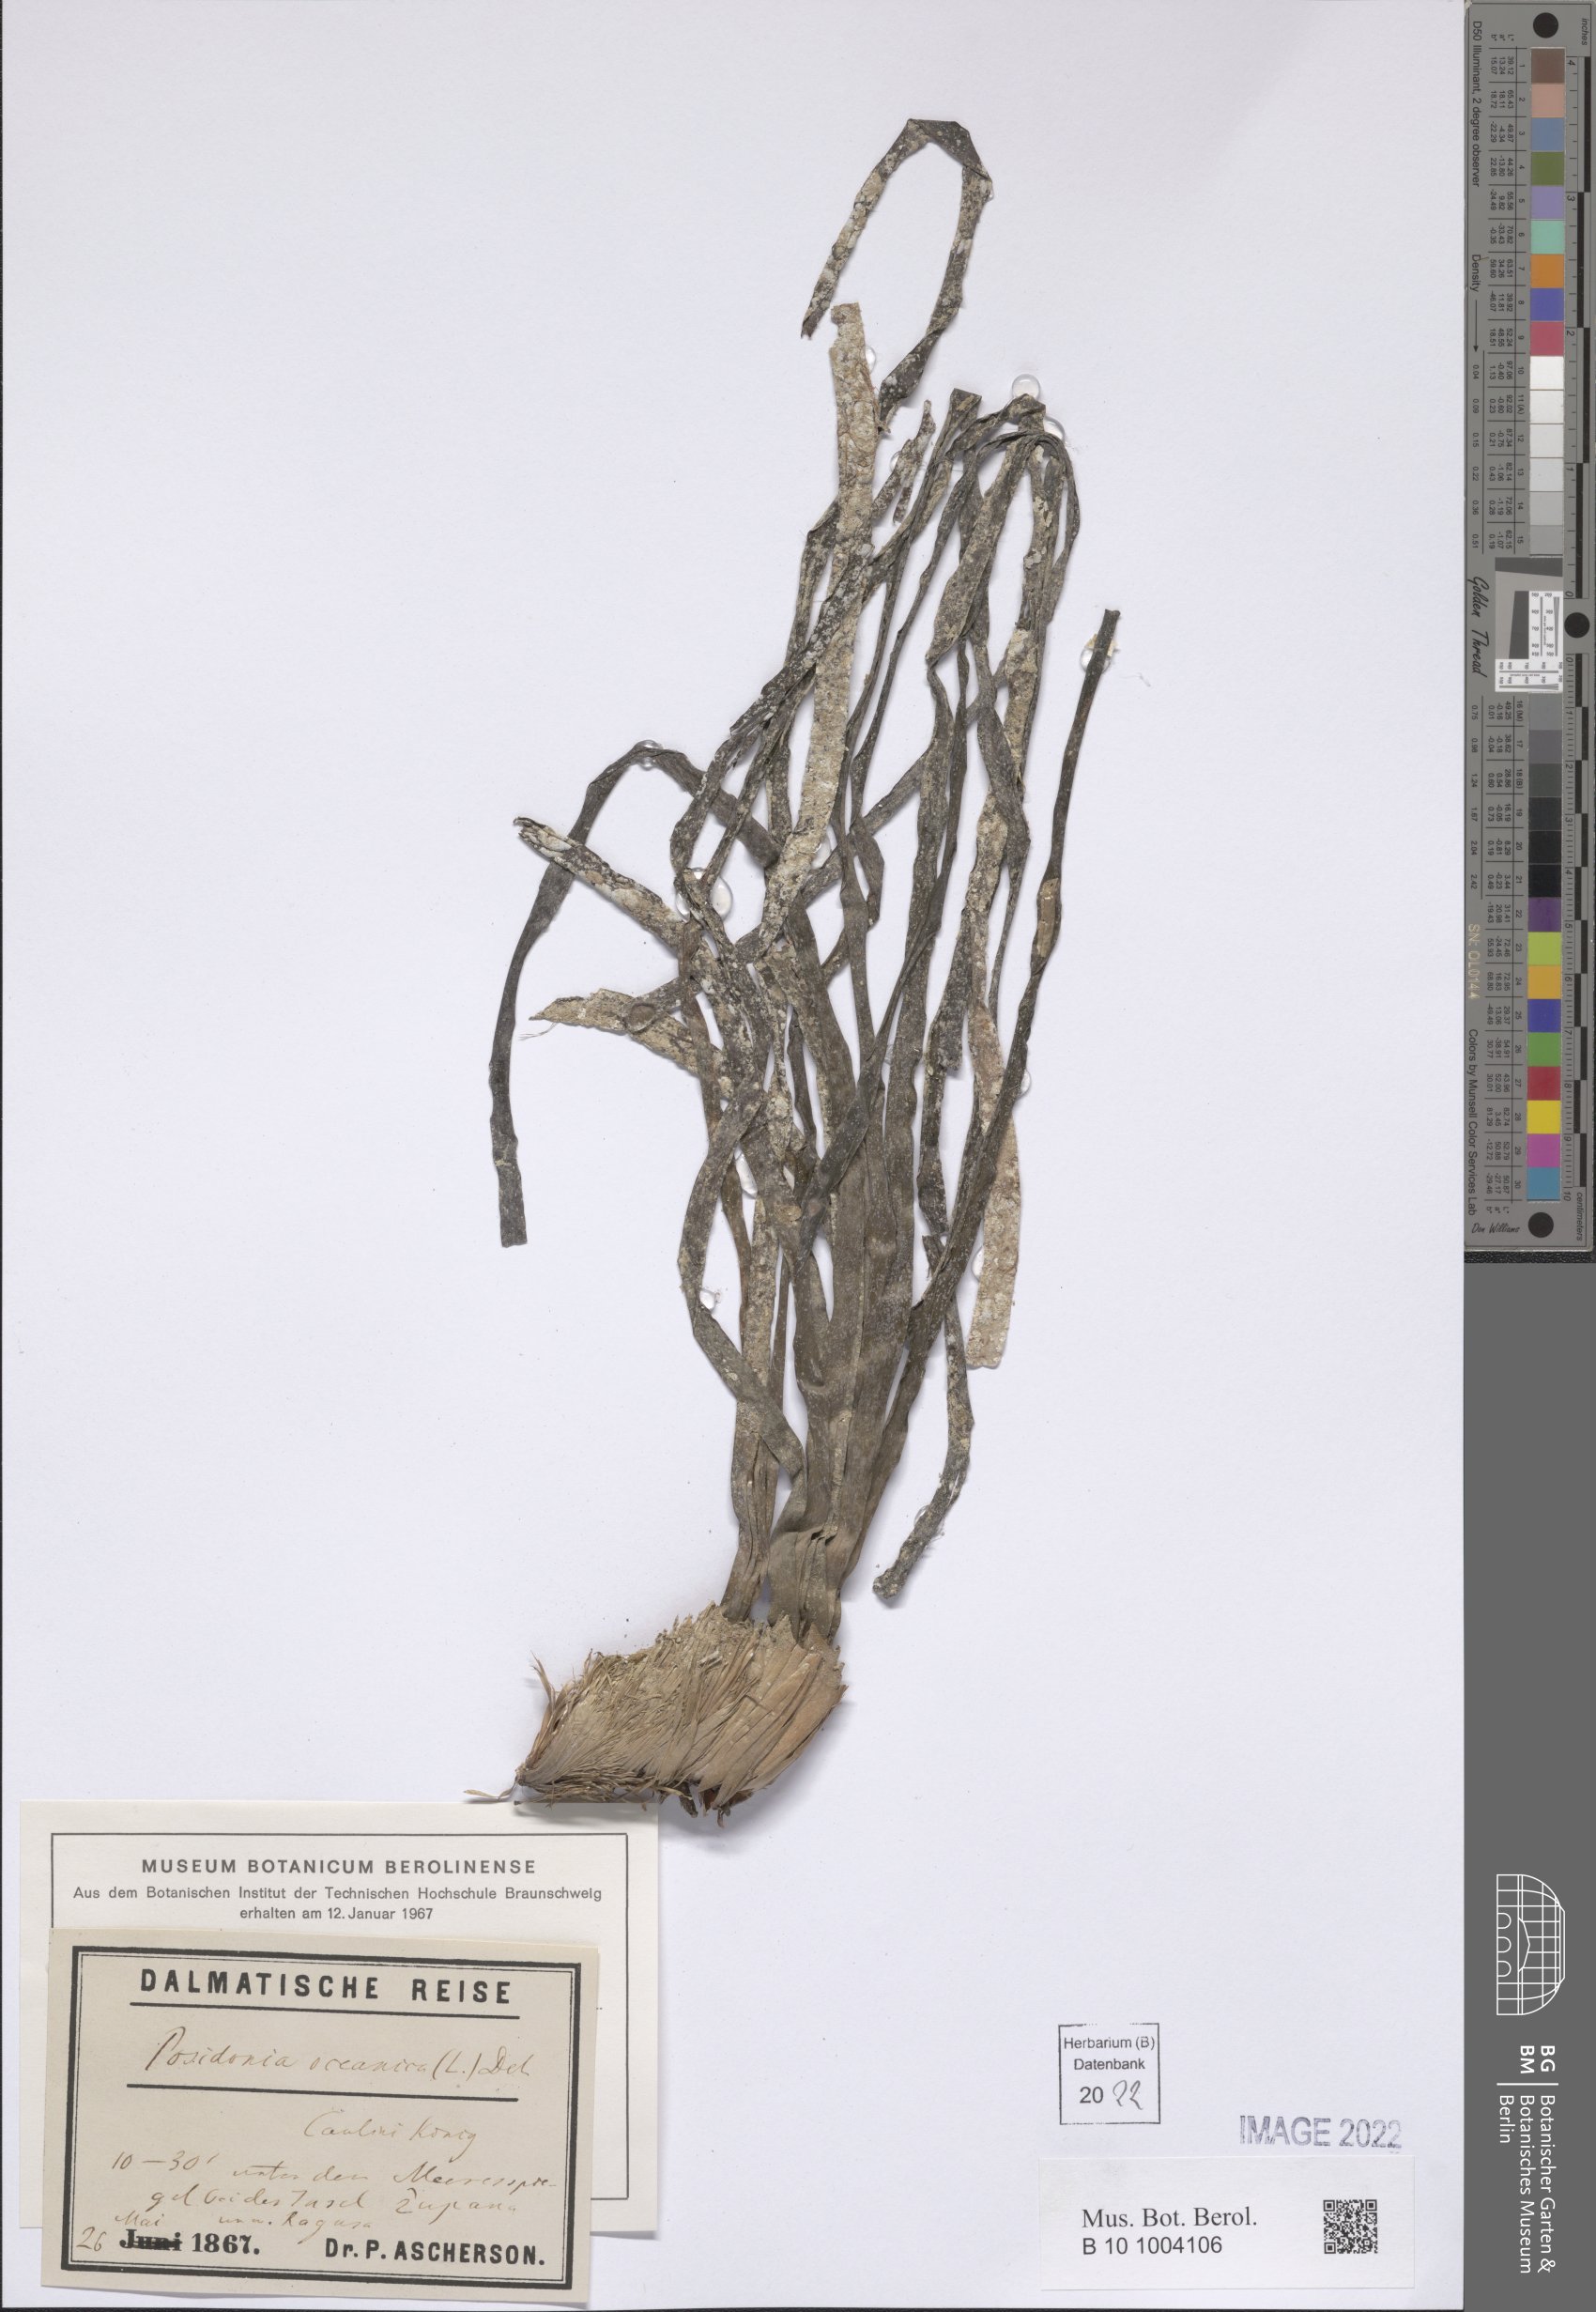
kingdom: Plantae
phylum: Tracheophyta
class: Liliopsida
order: Alismatales
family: Posidoniaceae
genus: Posidonia
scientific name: Posidonia oceanica
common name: Mediterranean tapeweed
